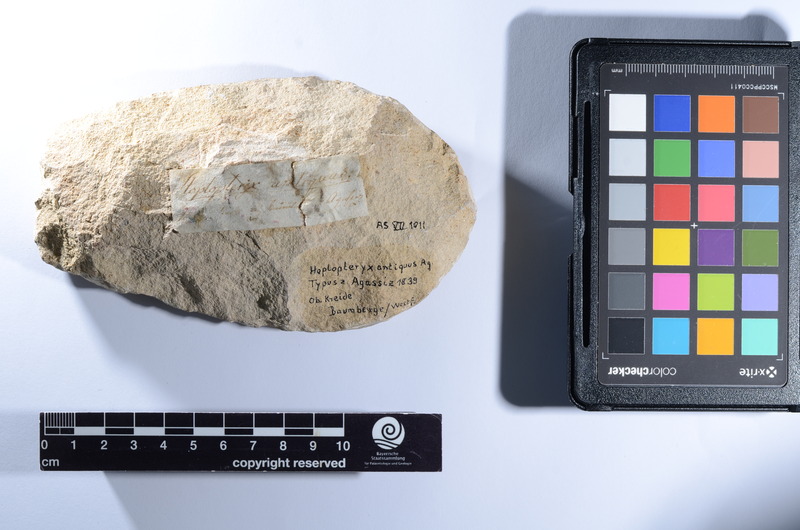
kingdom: Animalia
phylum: Chordata
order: Beryciformes
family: Hoplopterygiidae
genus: Hoplopteryx
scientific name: Hoplopteryx antiquus
